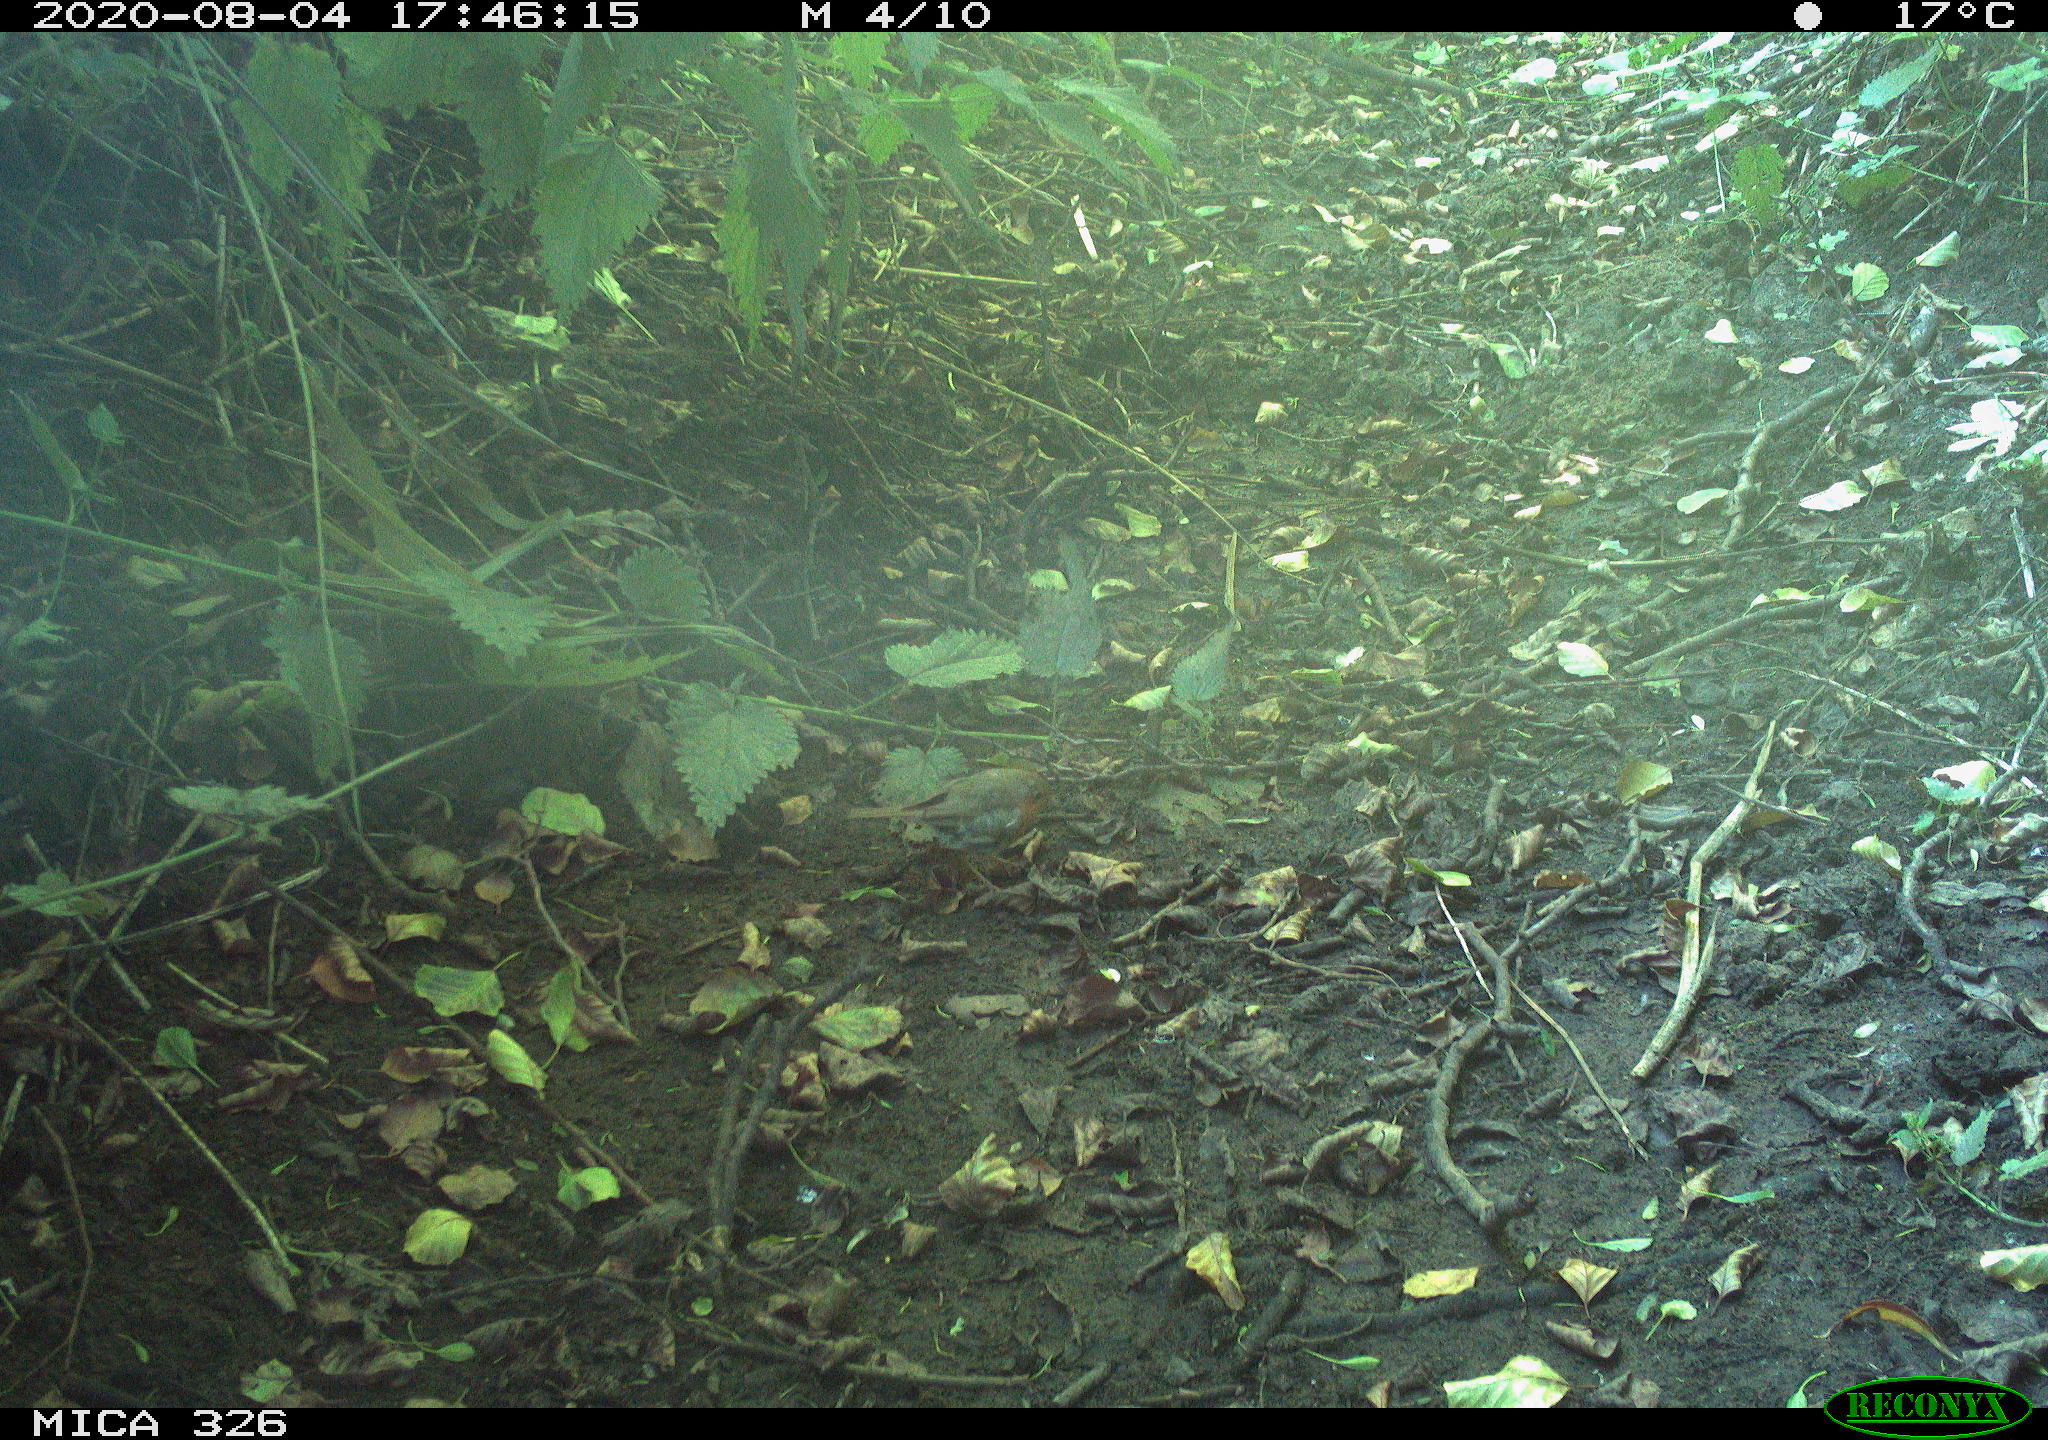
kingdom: Animalia
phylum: Chordata
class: Aves
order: Passeriformes
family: Muscicapidae
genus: Erithacus
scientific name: Erithacus rubecula
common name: European robin
